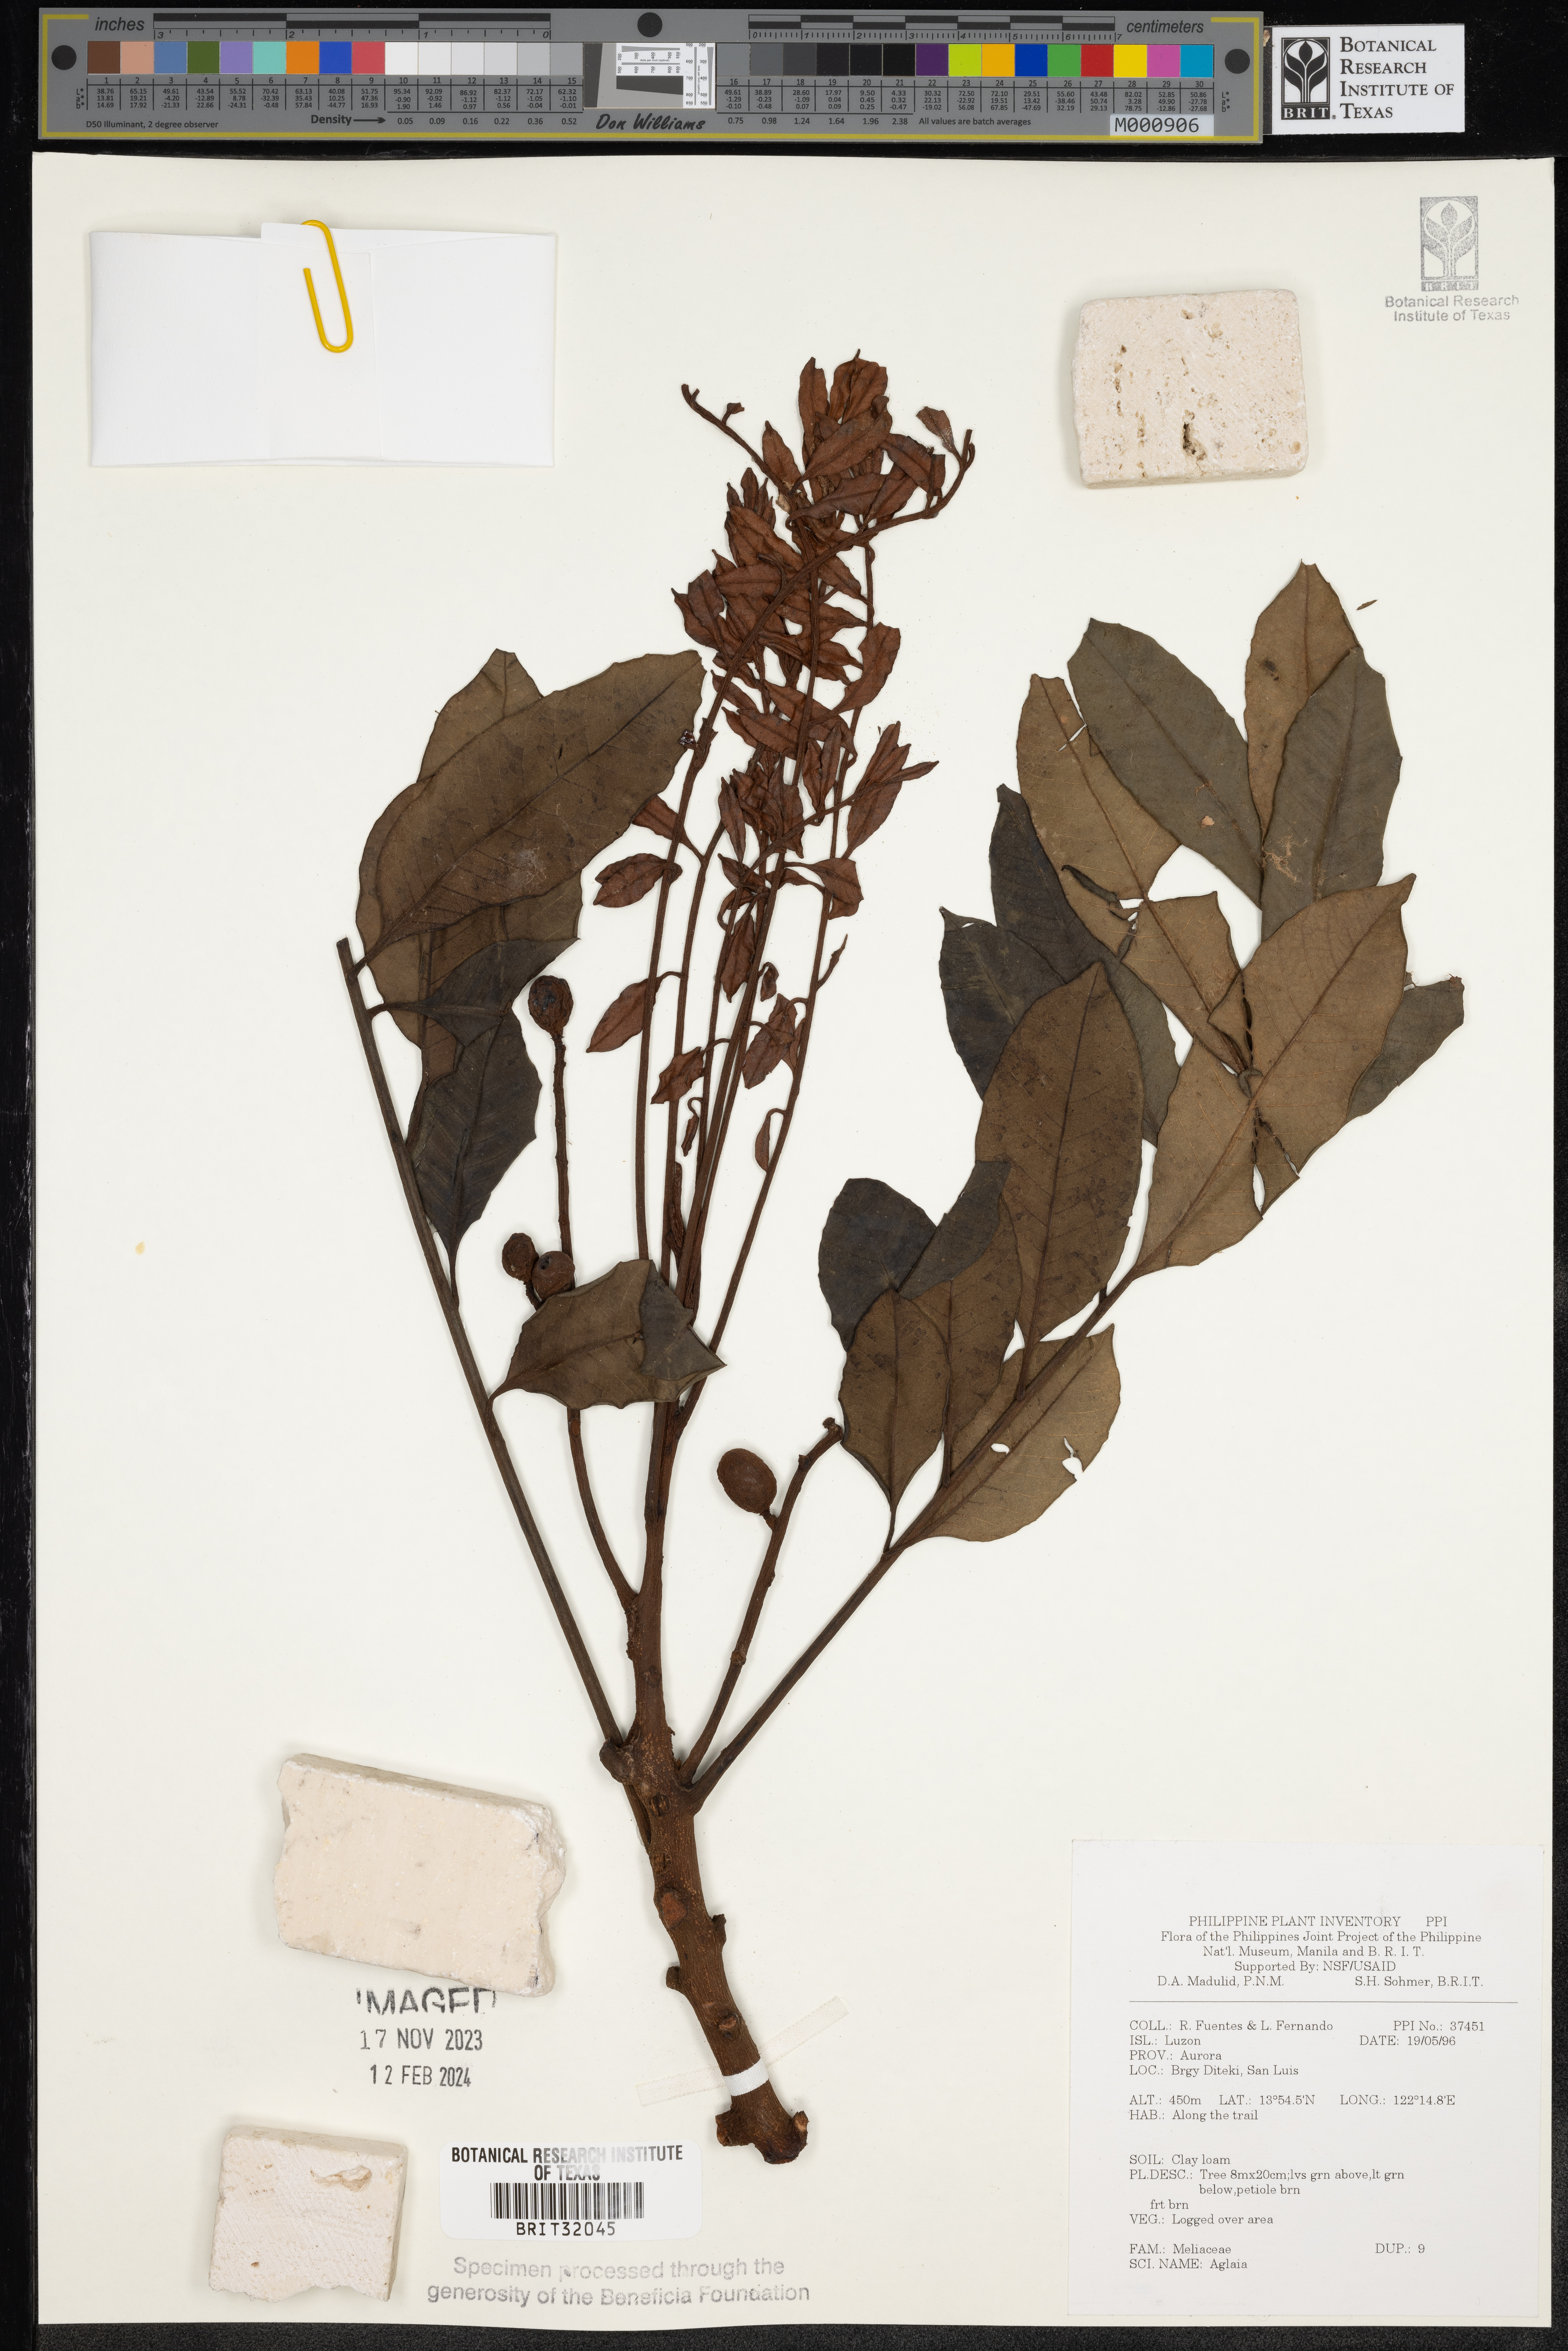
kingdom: Plantae
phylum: Tracheophyta
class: Magnoliopsida
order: Sapindales
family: Meliaceae
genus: Aglaia
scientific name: Aglaia
